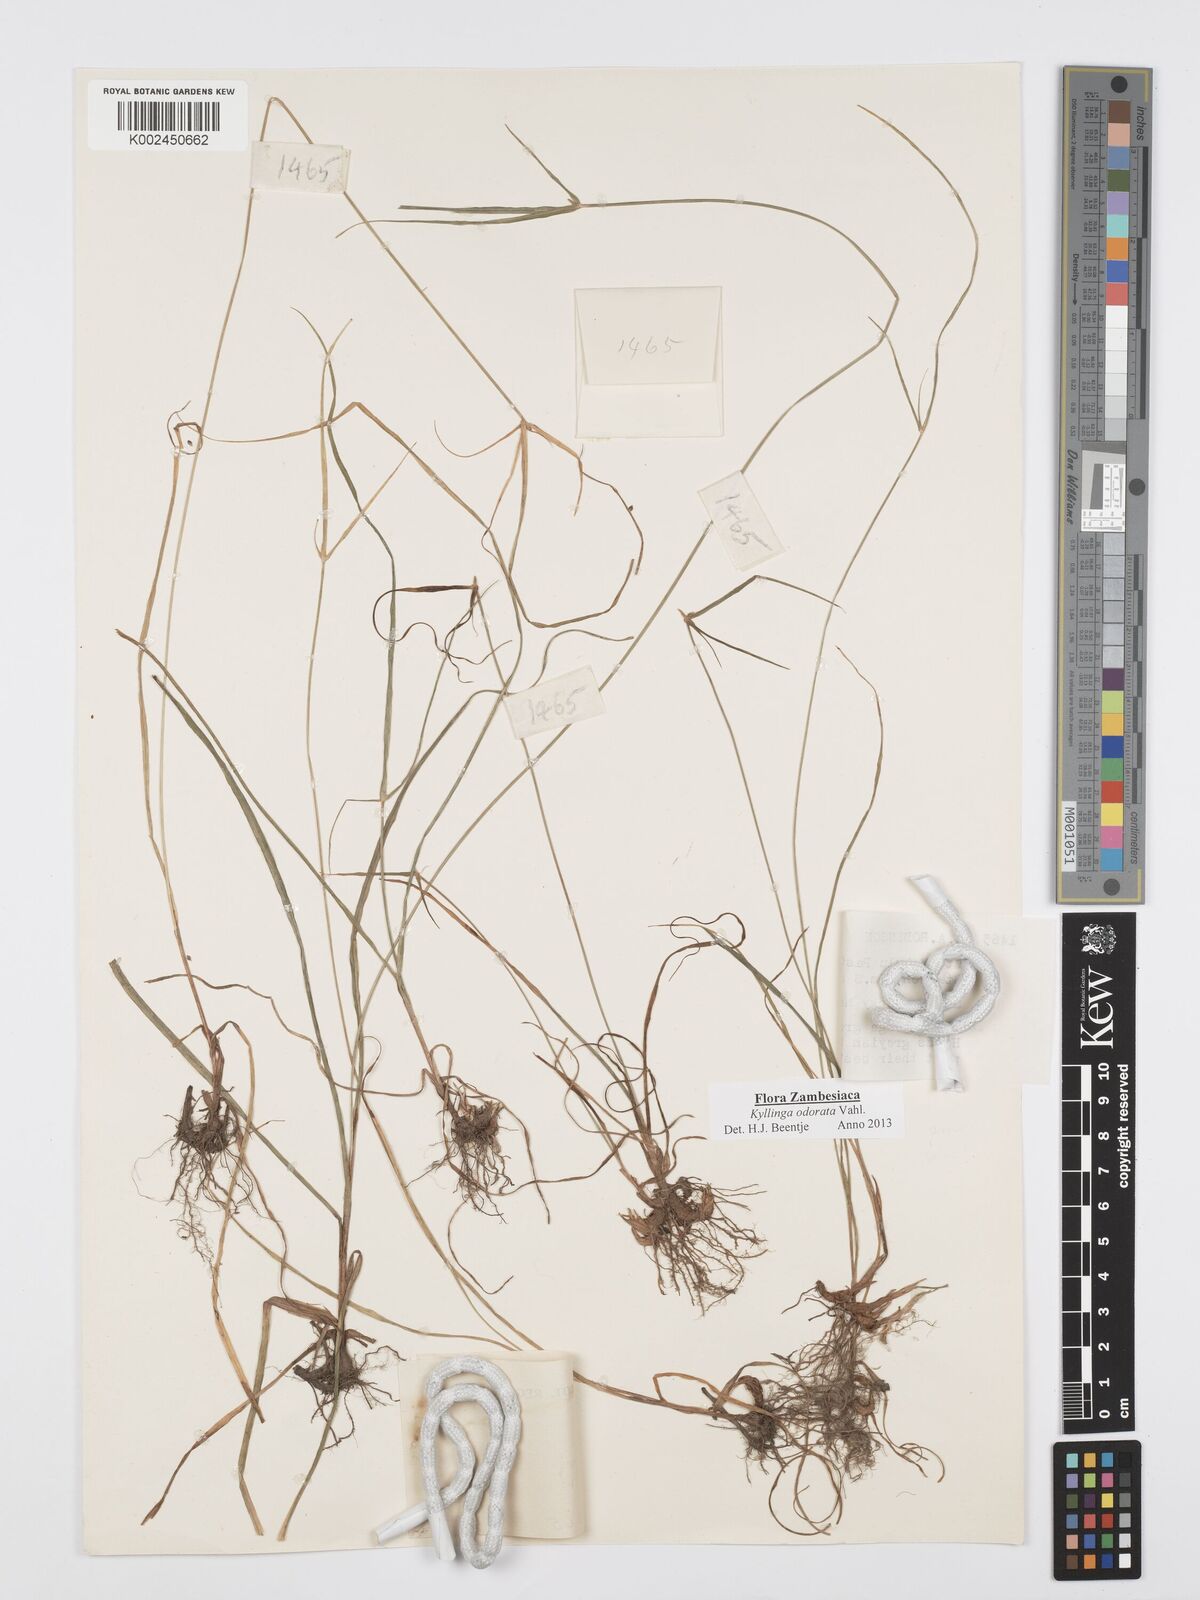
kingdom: Plantae
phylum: Tracheophyta
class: Liliopsida
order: Poales
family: Cyperaceae
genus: Cyperus
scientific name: Cyperus
